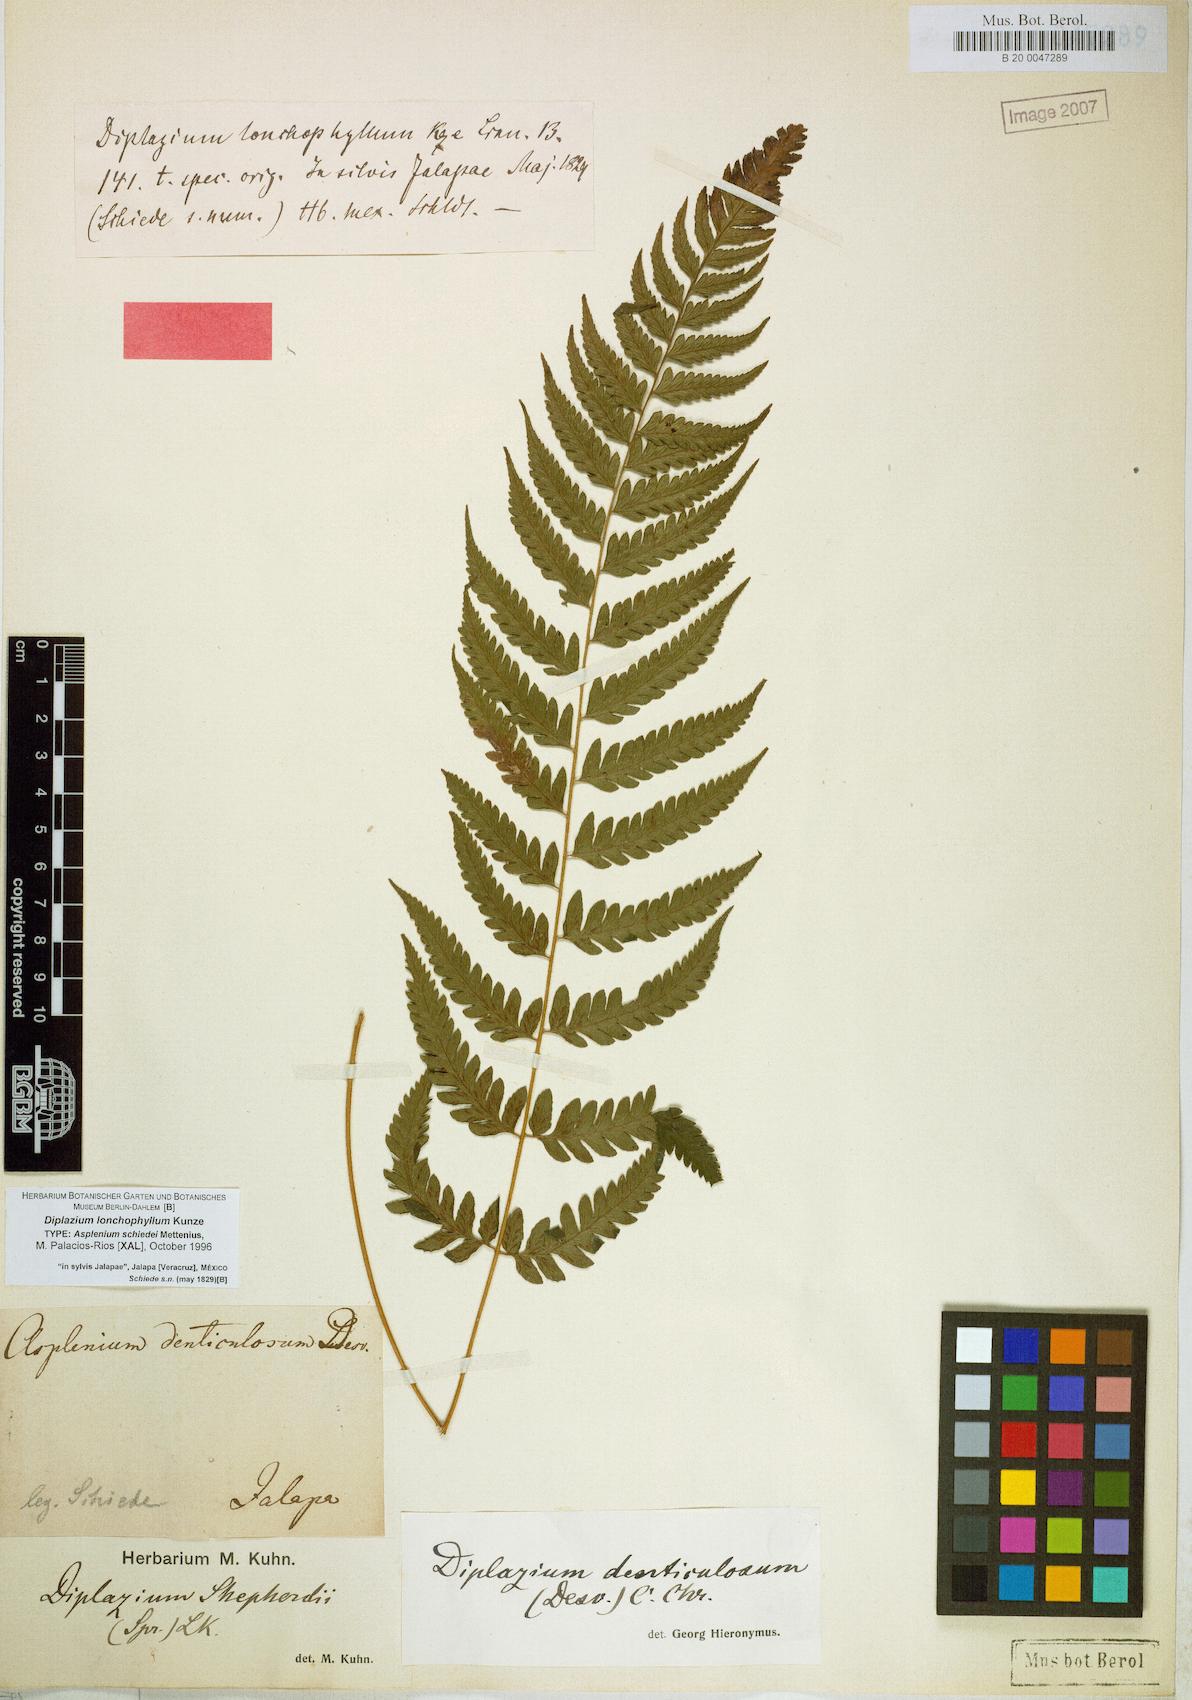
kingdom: Plantae
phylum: Tracheophyta
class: Polypodiopsida
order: Polypodiales
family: Athyriaceae
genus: Diplazium
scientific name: Diplazium lonchophyllum
